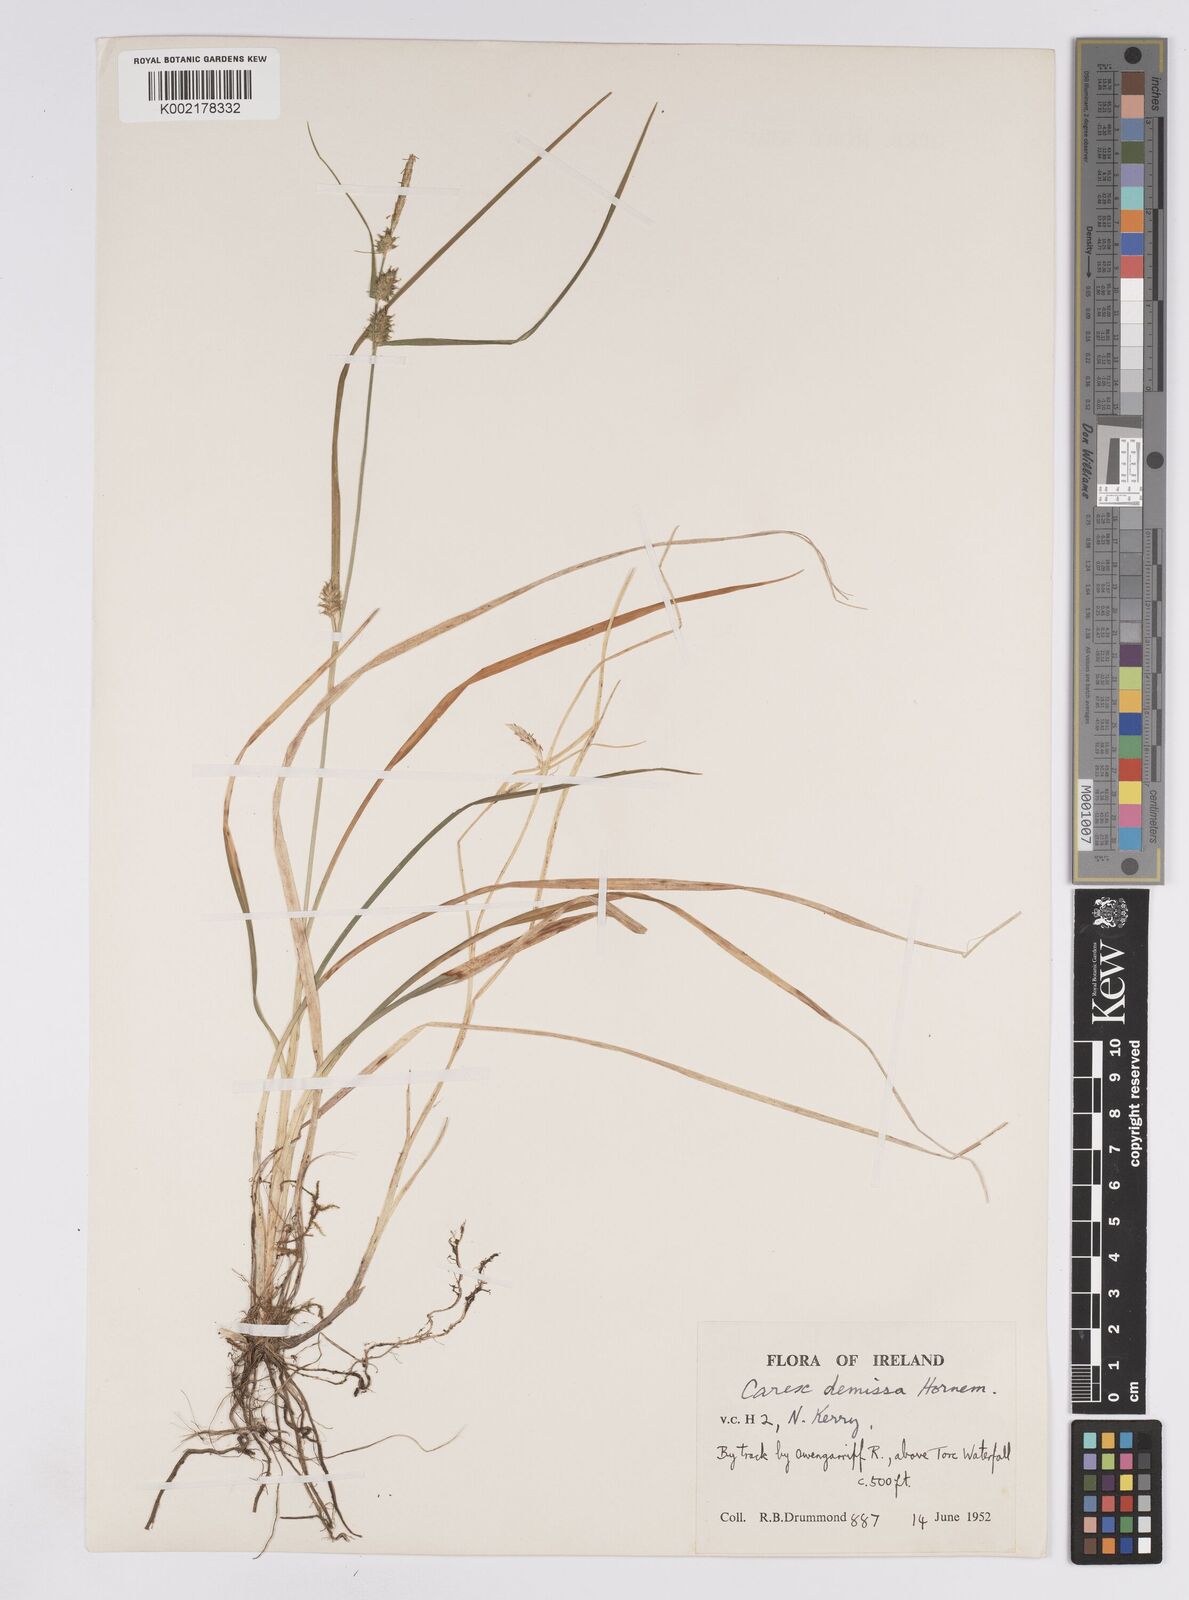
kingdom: Plantae
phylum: Tracheophyta
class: Liliopsida
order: Poales
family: Cyperaceae
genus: Carex
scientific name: Carex demissa
